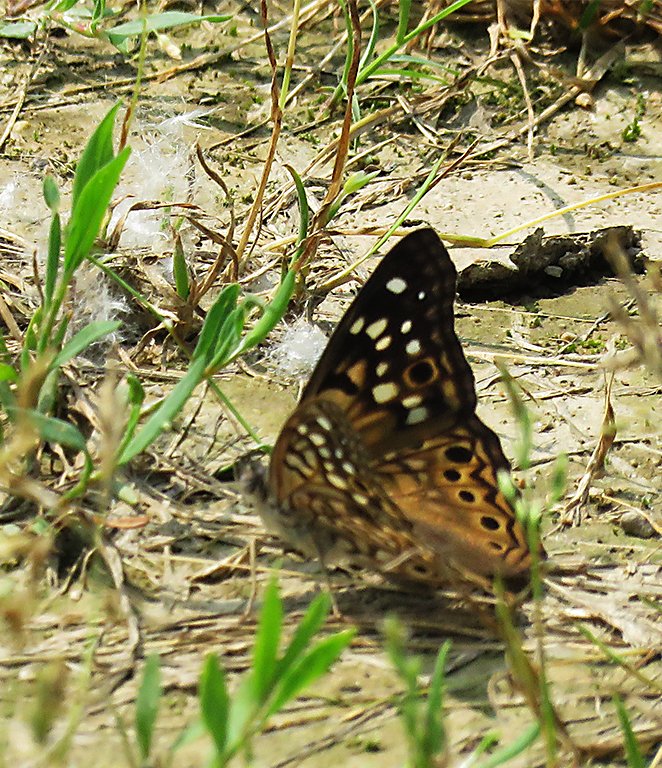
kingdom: Animalia
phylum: Arthropoda
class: Insecta
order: Lepidoptera
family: Nymphalidae
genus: Asterocampa
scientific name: Asterocampa celtis
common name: Hackberry Emperor
